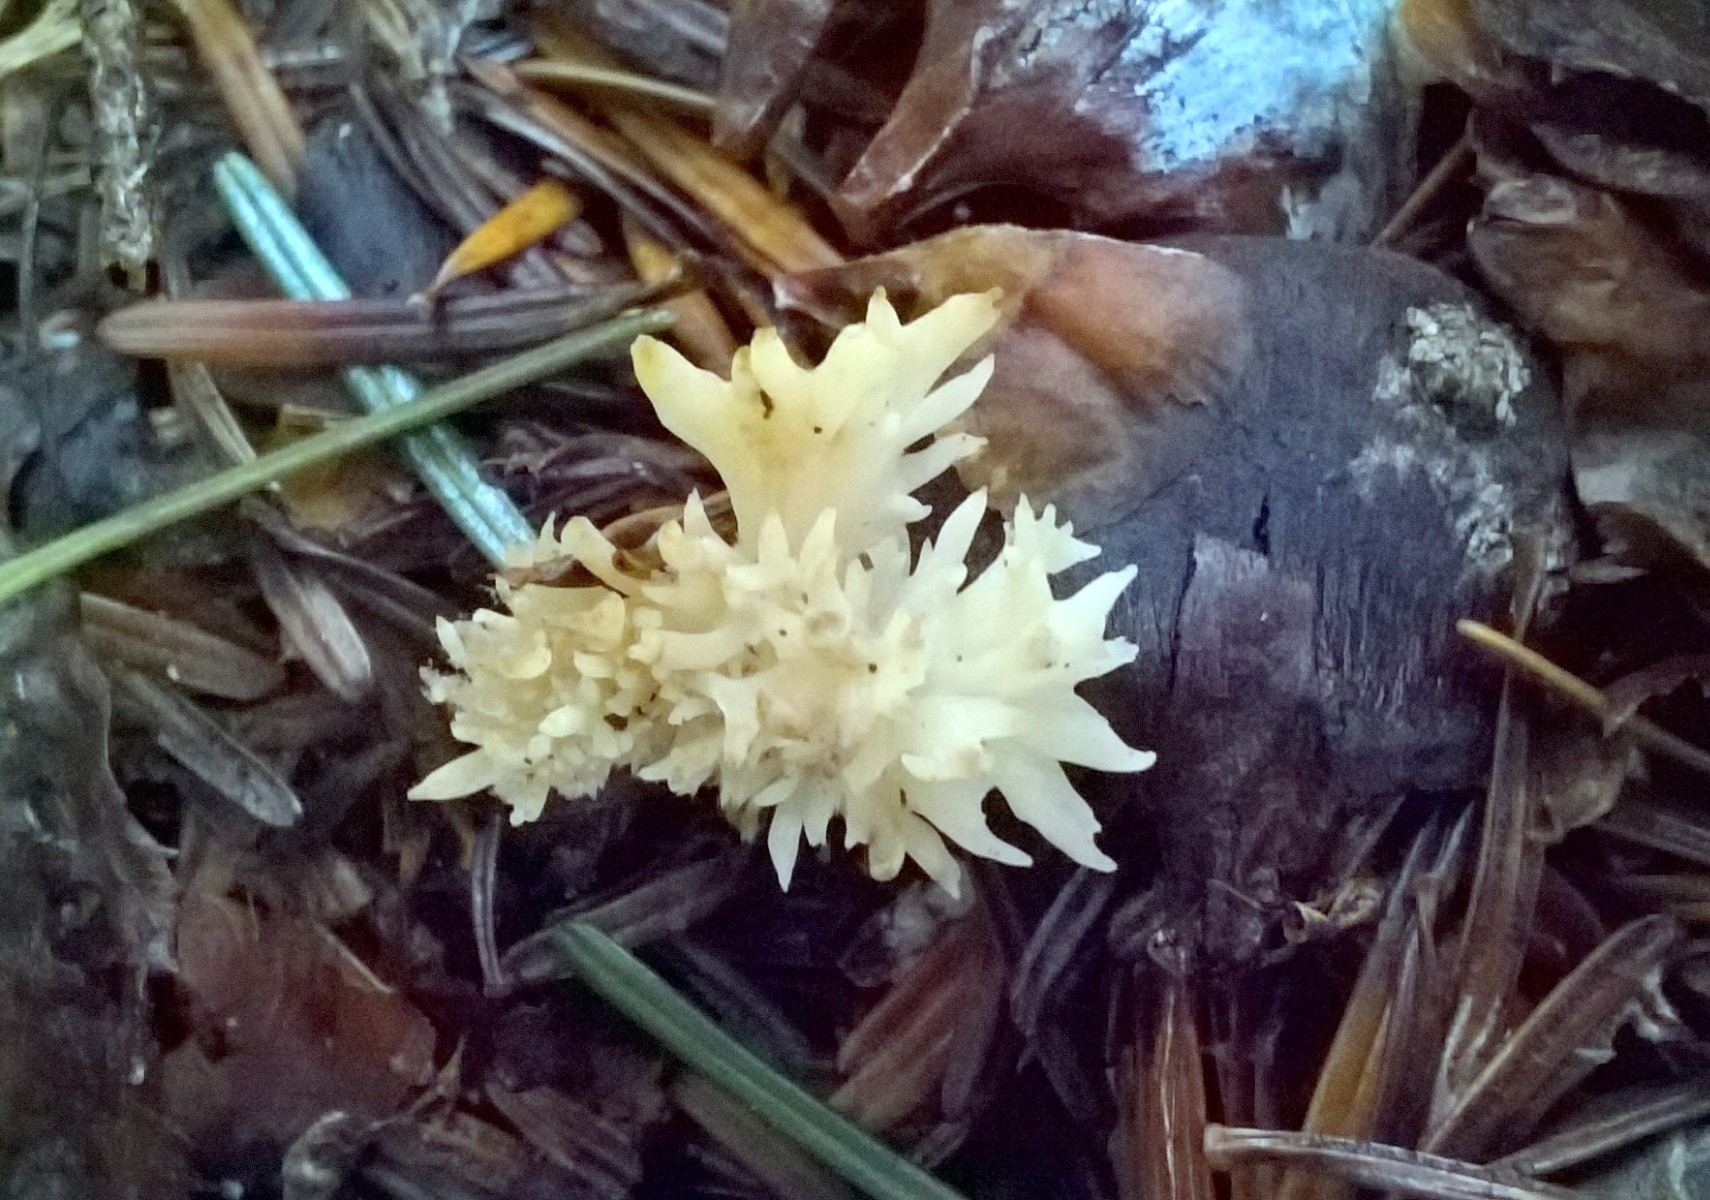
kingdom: Fungi
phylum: Basidiomycota
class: Agaricomycetes
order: Cantharellales
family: Hydnaceae
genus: Clavulina
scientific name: Clavulina
